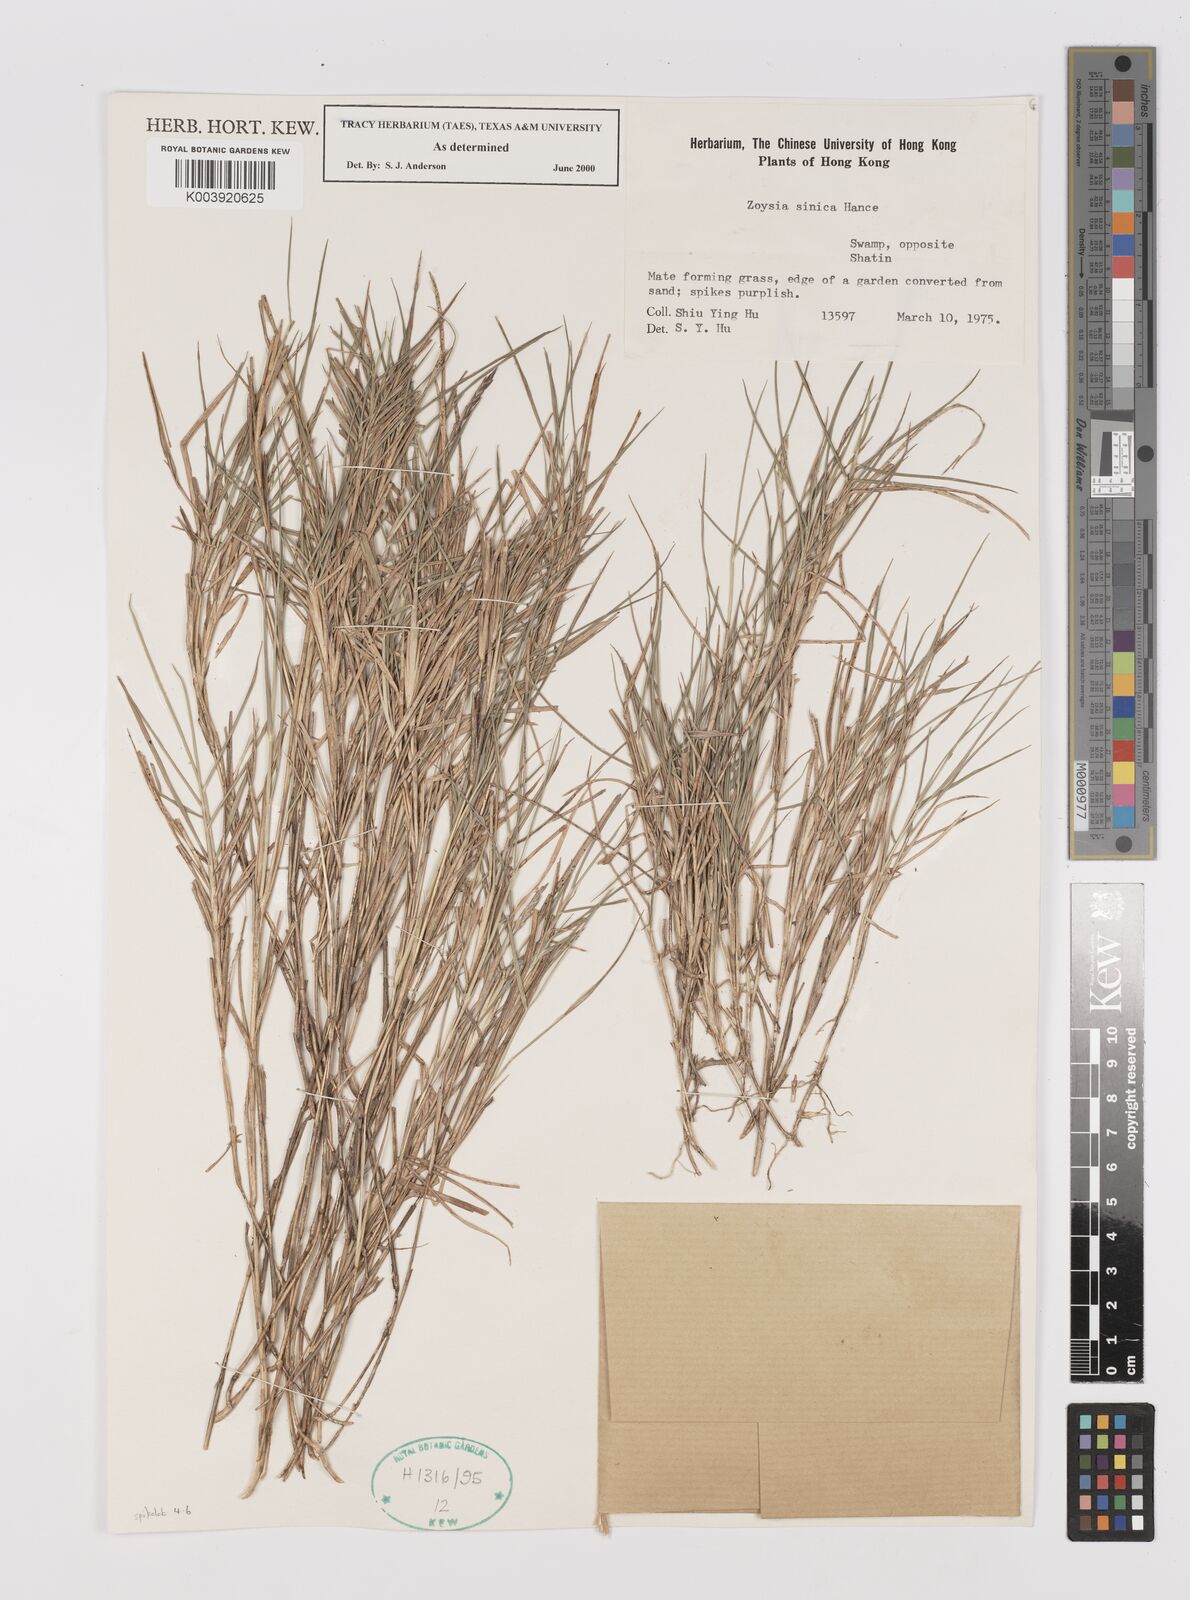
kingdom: Plantae
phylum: Tracheophyta
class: Liliopsida
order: Poales
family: Poaceae
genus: Zoysia
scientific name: Zoysia sinica
